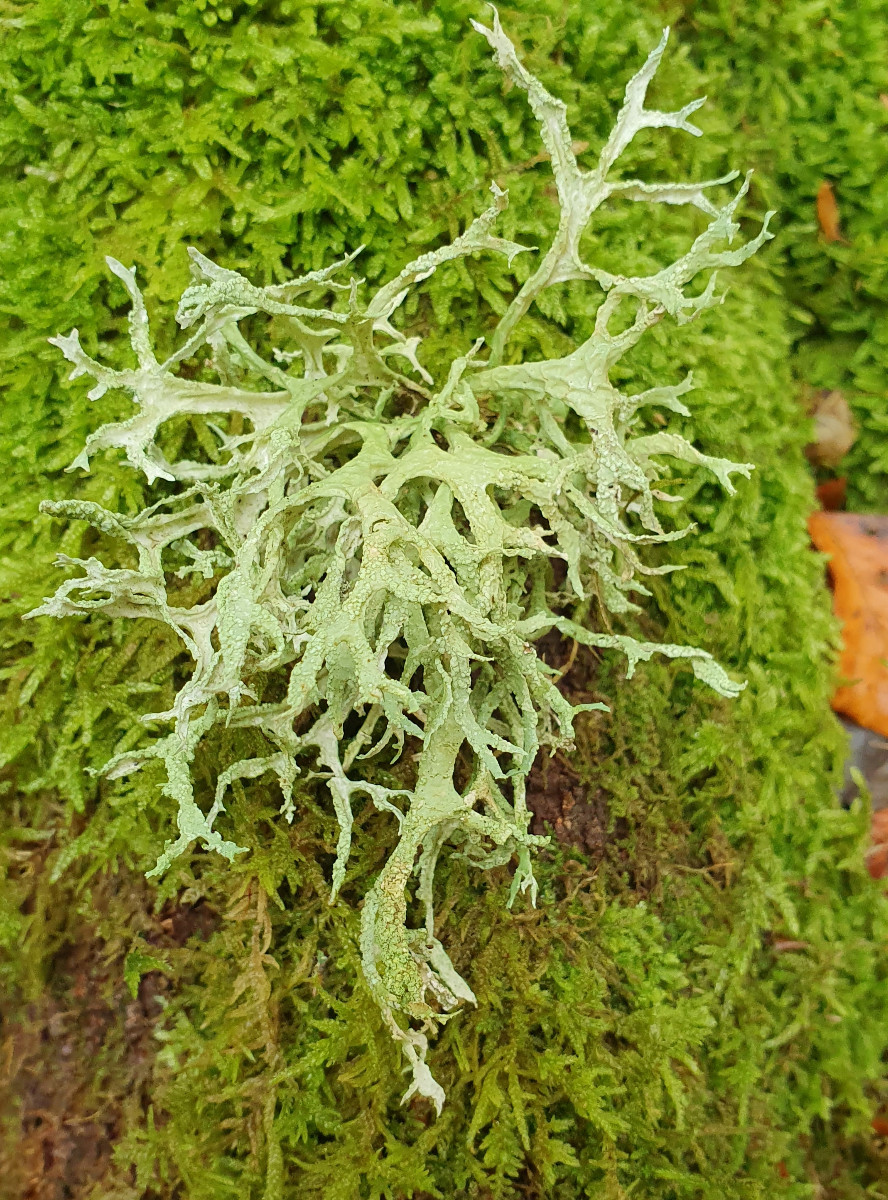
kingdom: Fungi
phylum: Ascomycota
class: Lecanoromycetes
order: Lecanorales
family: Parmeliaceae
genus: Evernia
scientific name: Evernia prunastri
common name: almindelig slåenlav
